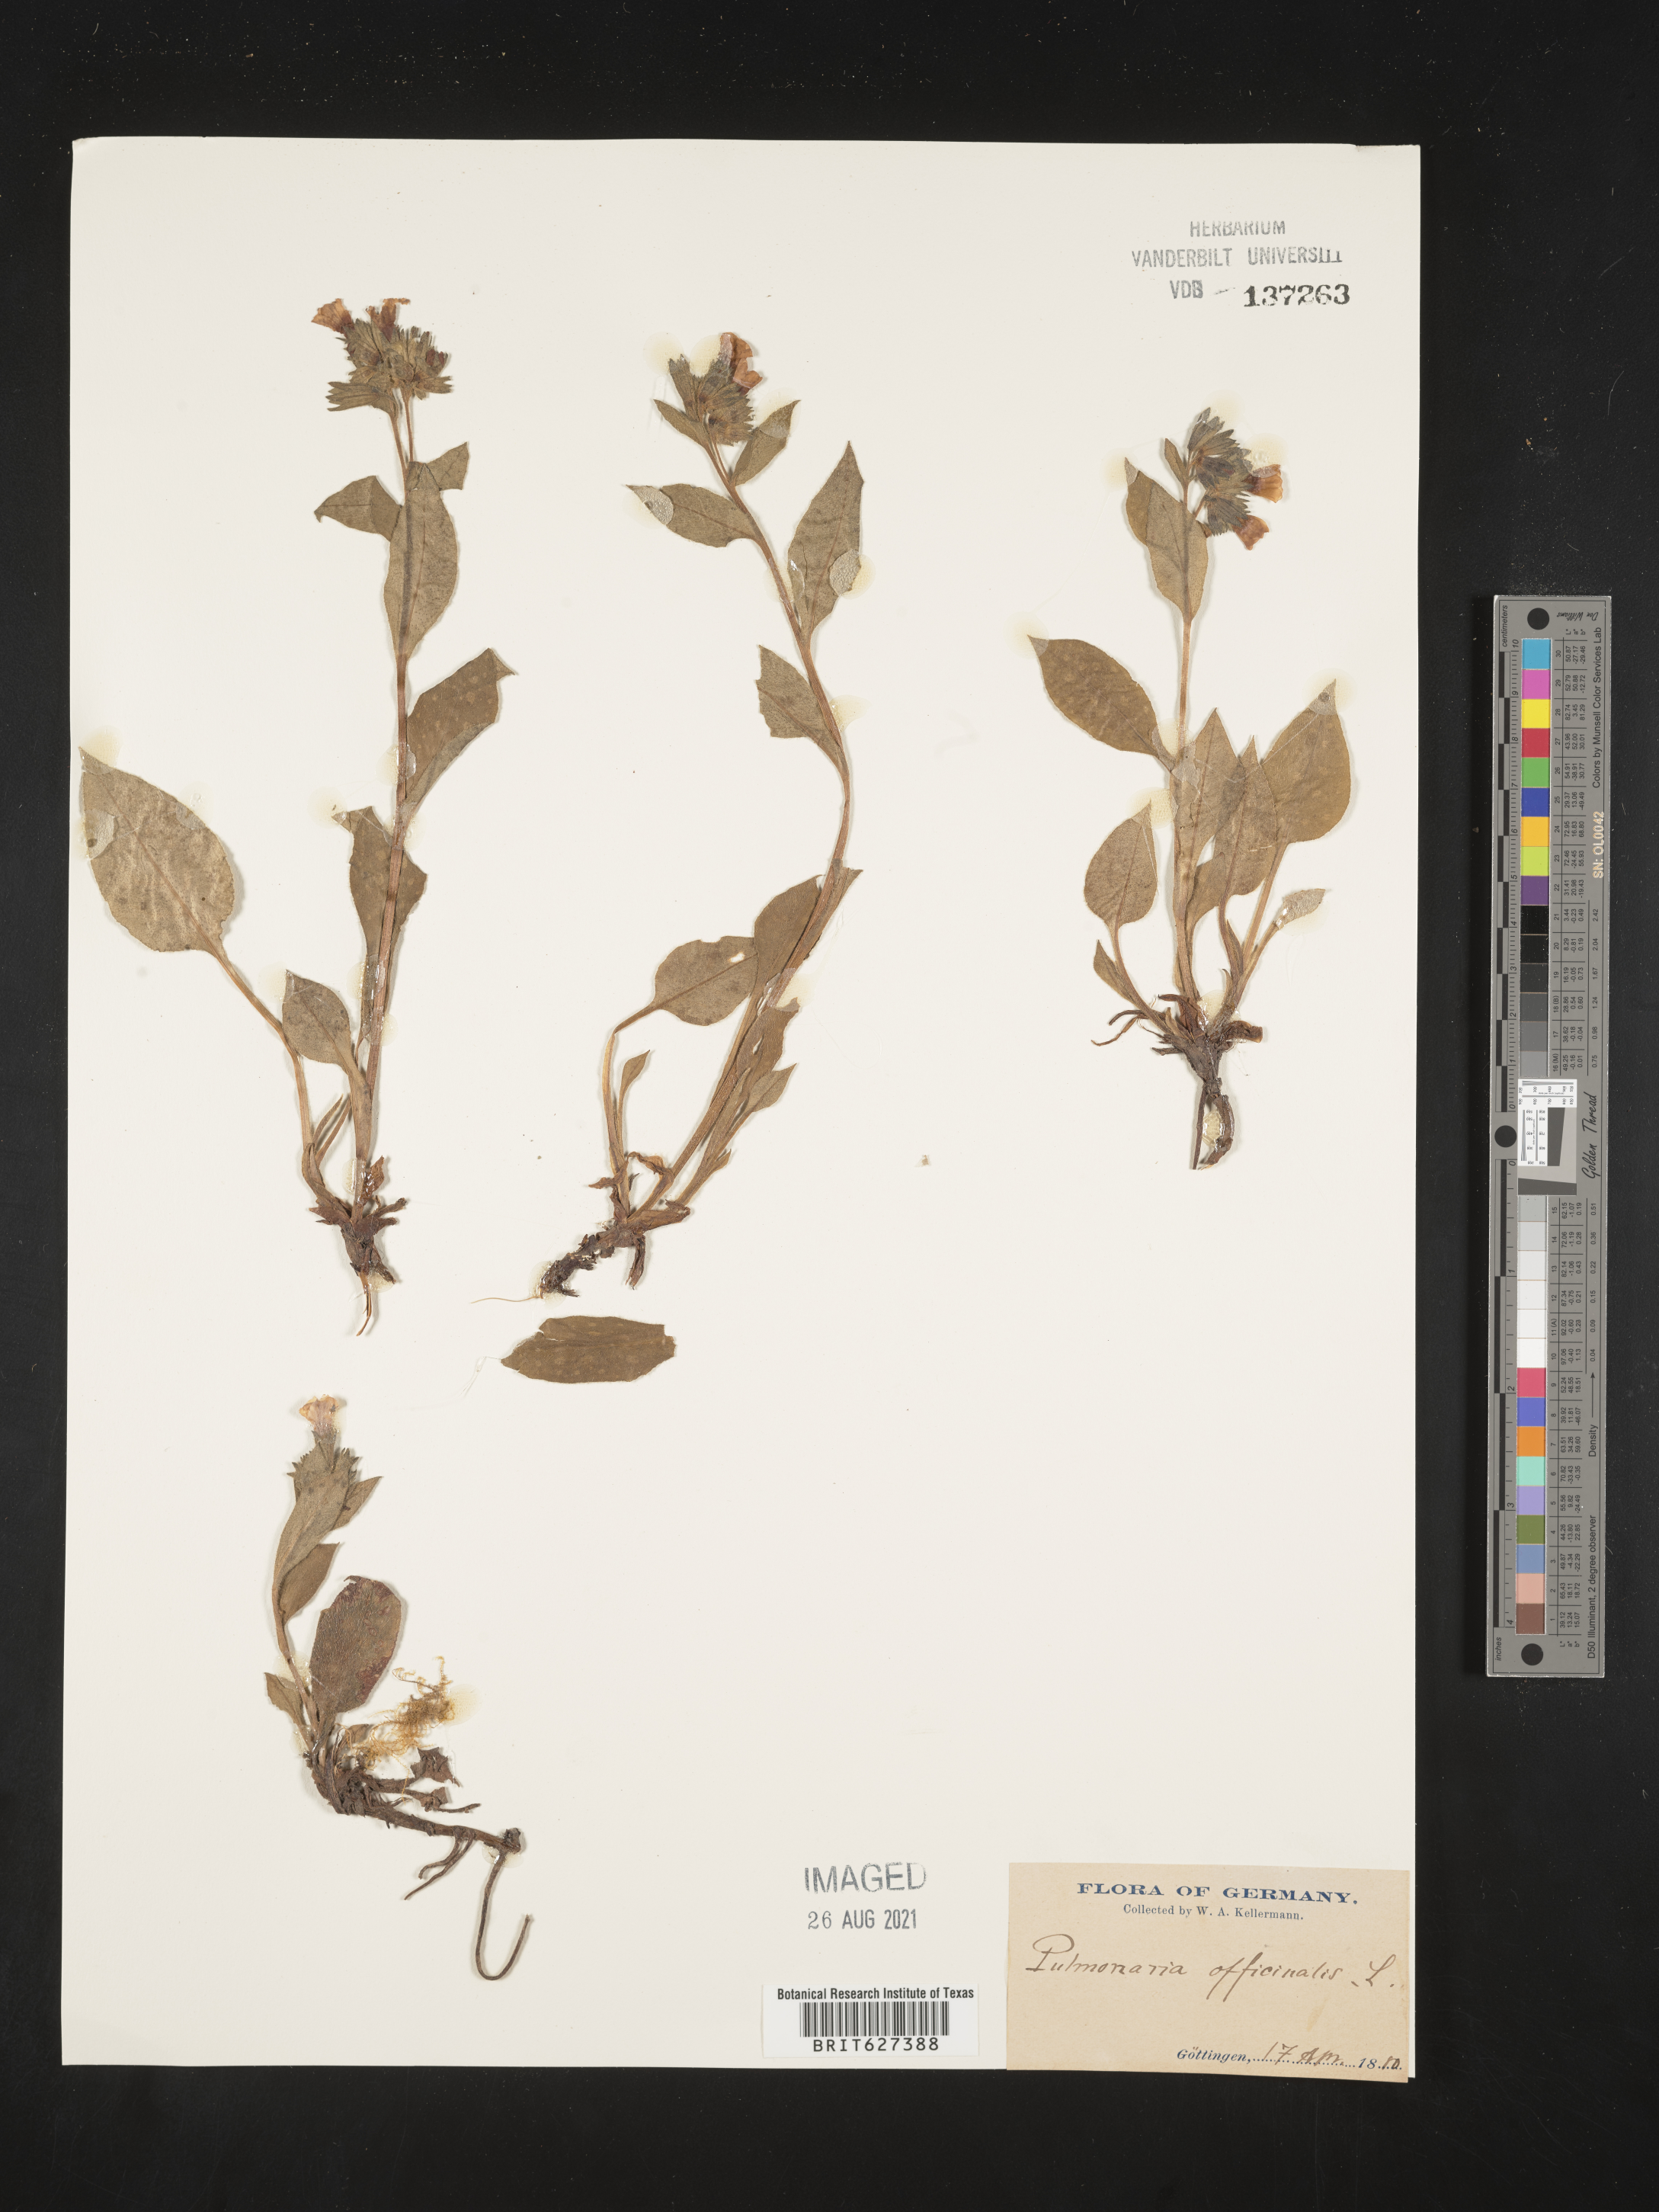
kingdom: Plantae
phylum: Tracheophyta
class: Magnoliopsida
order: Boraginales
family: Boraginaceae
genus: Pulmonaria
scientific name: Pulmonaria officinalis
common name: Lungwort
